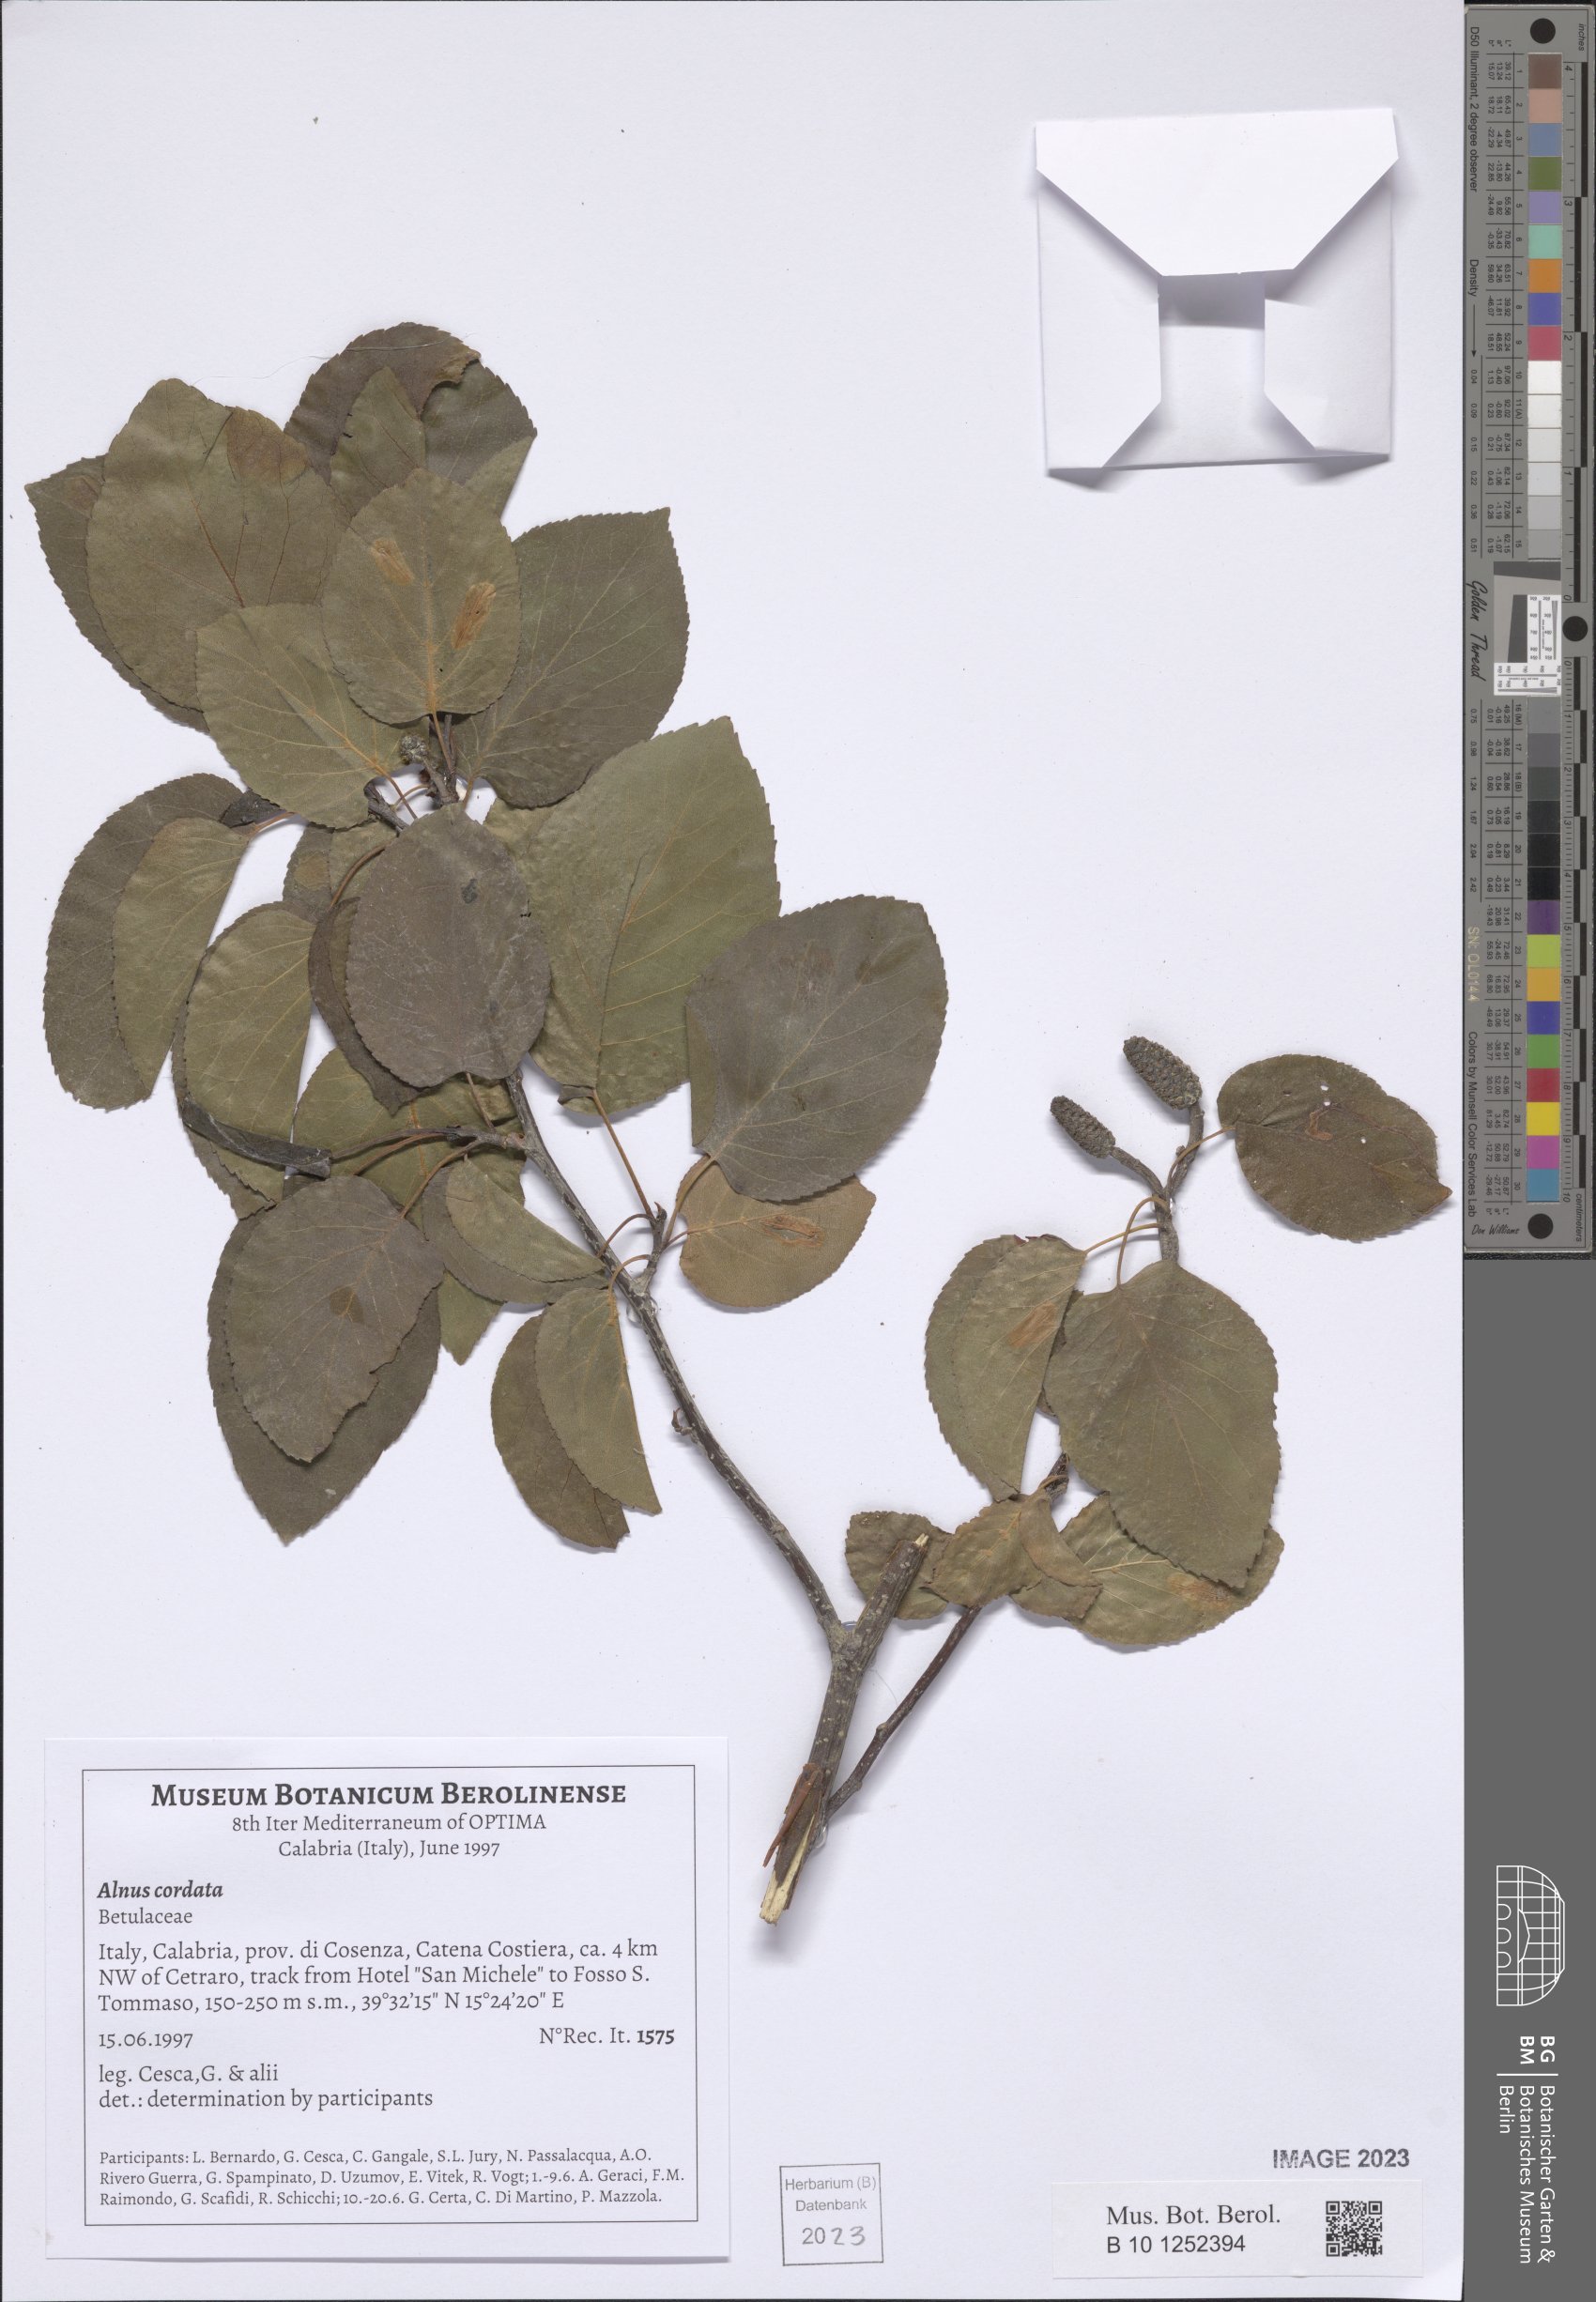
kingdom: Plantae
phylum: Tracheophyta
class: Magnoliopsida
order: Fagales
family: Betulaceae
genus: Alnus
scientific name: Alnus cordata
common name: Italian alder
